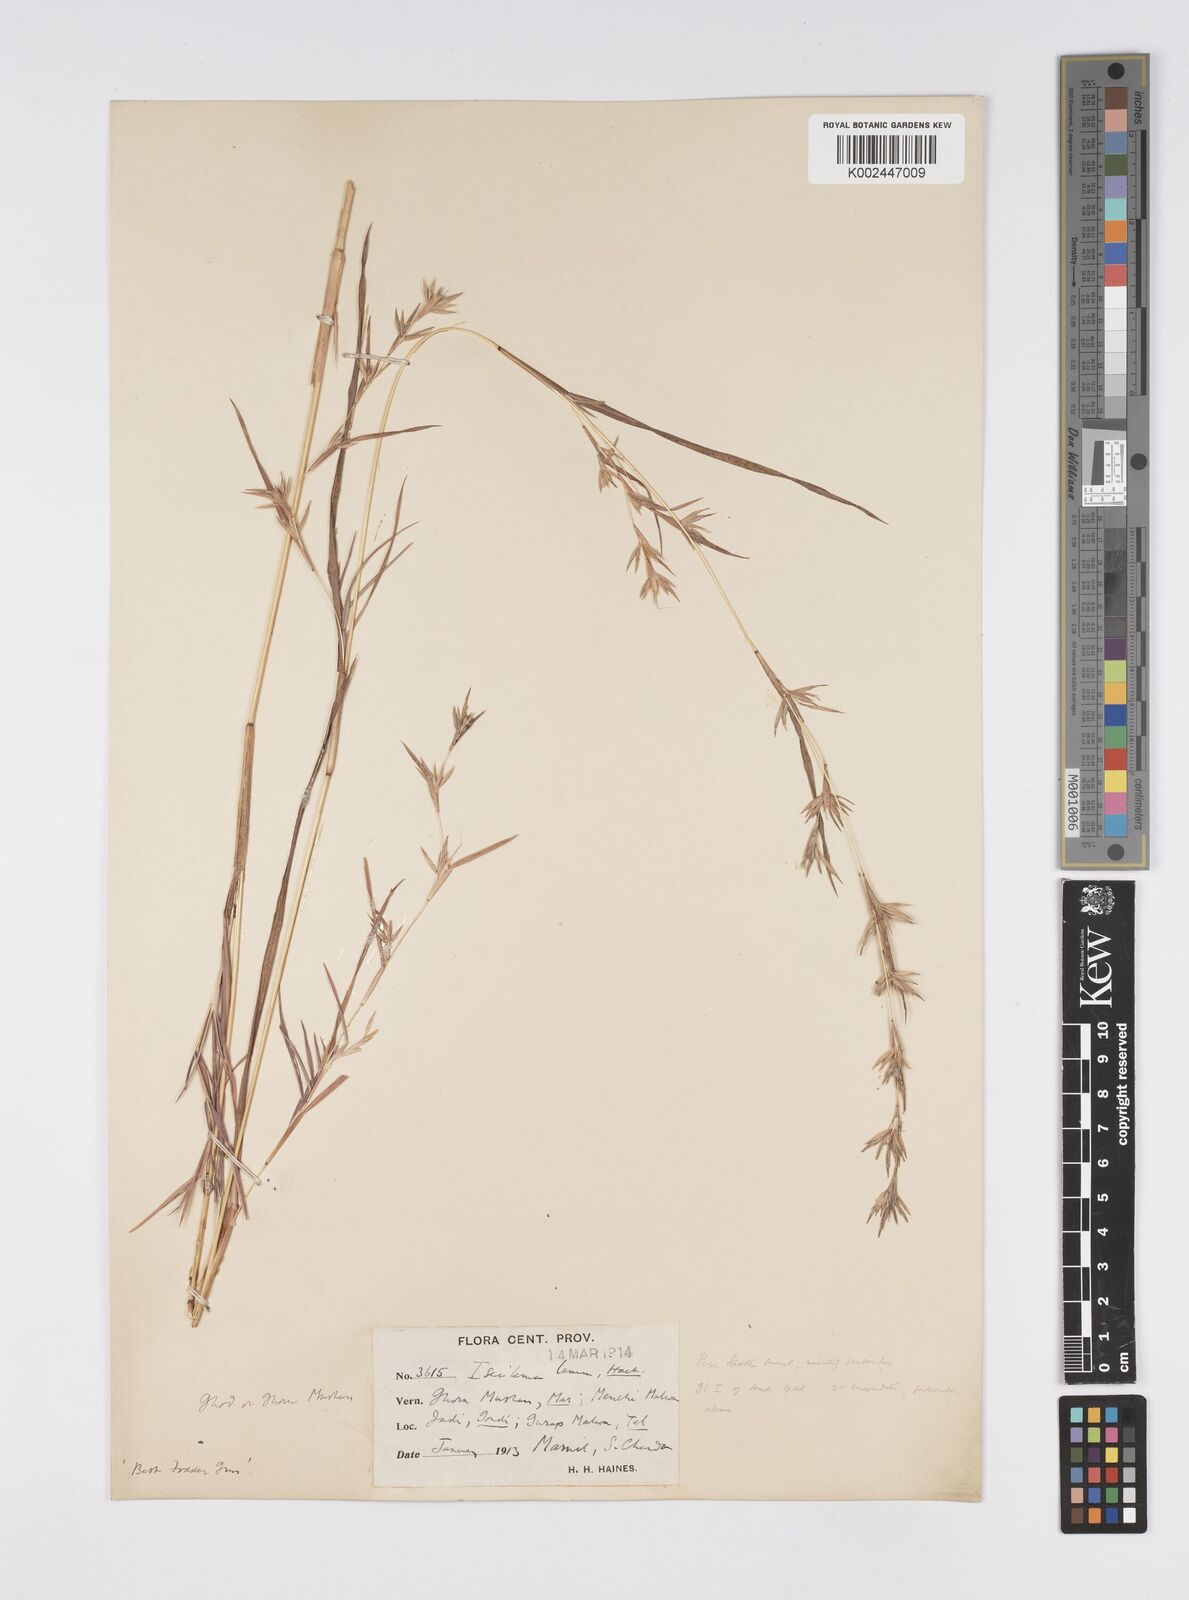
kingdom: Plantae
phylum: Tracheophyta
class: Liliopsida
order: Poales
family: Poaceae
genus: Iseilema
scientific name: Iseilema prostratum
